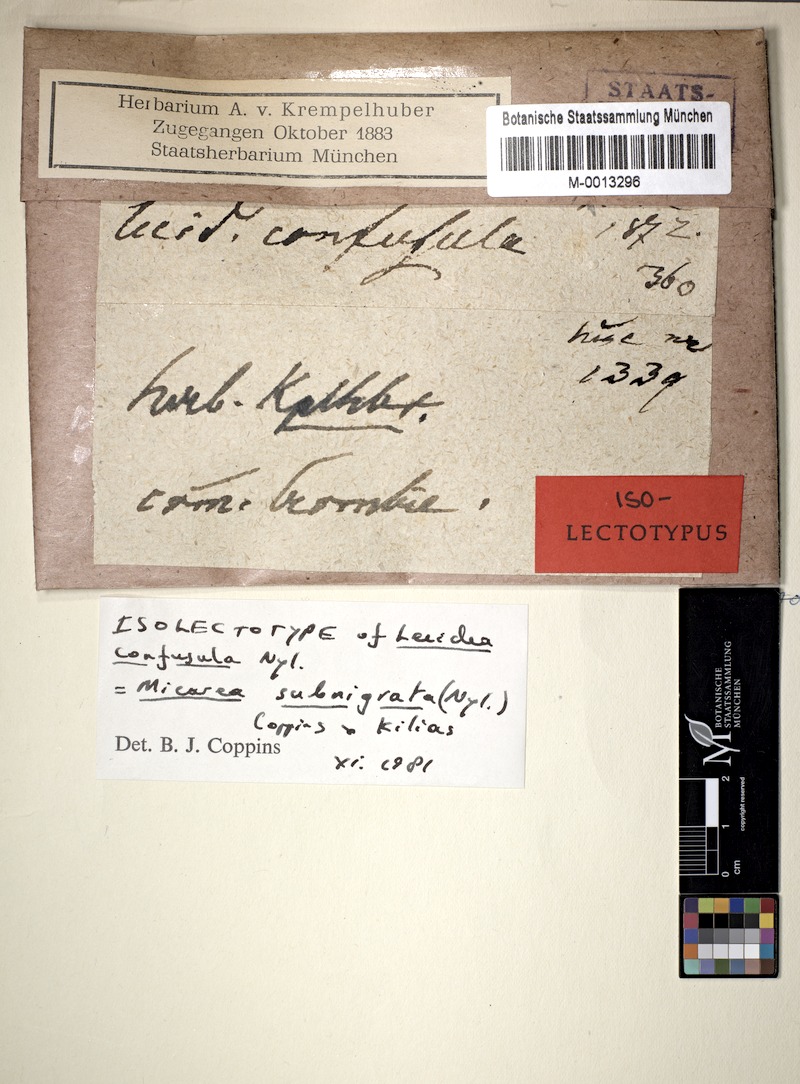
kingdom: Fungi
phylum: Ascomycota
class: Lecanoromycetes
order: Lecanorales
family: Byssolomataceae
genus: Micarea
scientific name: Micarea subnigrata
